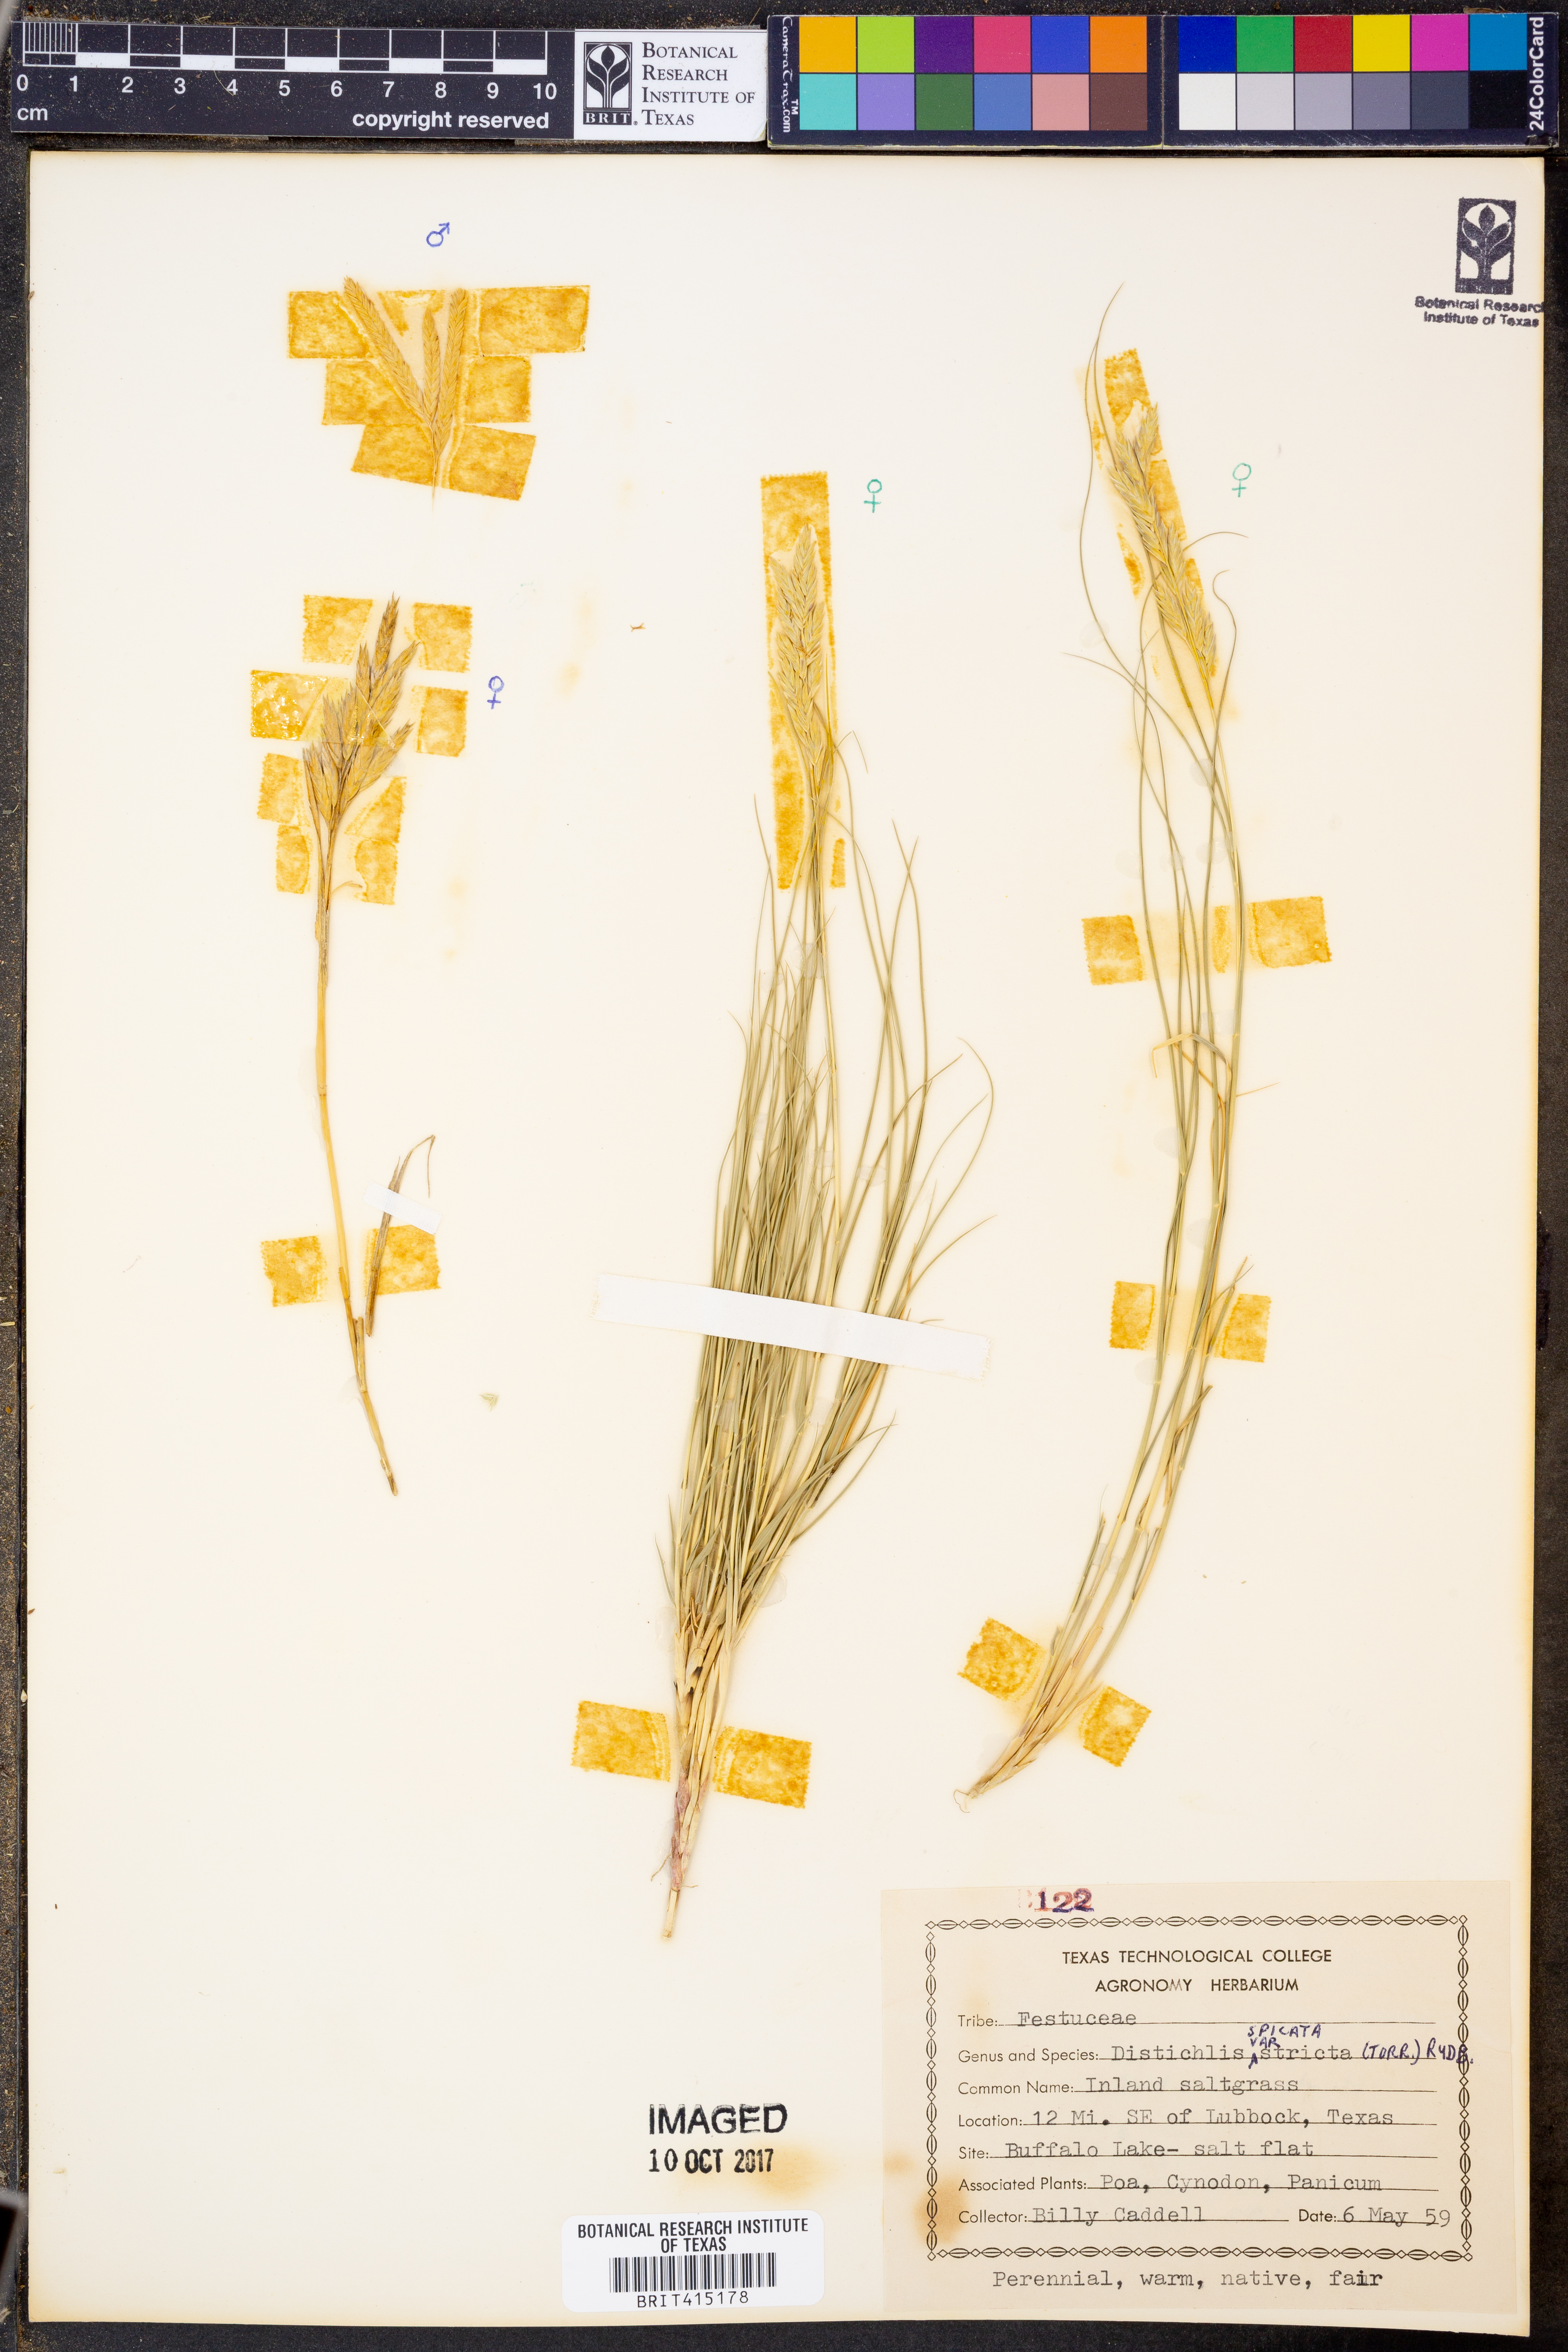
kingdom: Plantae
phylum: Tracheophyta
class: Liliopsida
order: Poales
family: Poaceae
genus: Distichlis
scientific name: Distichlis spicata
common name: Saltgrass
